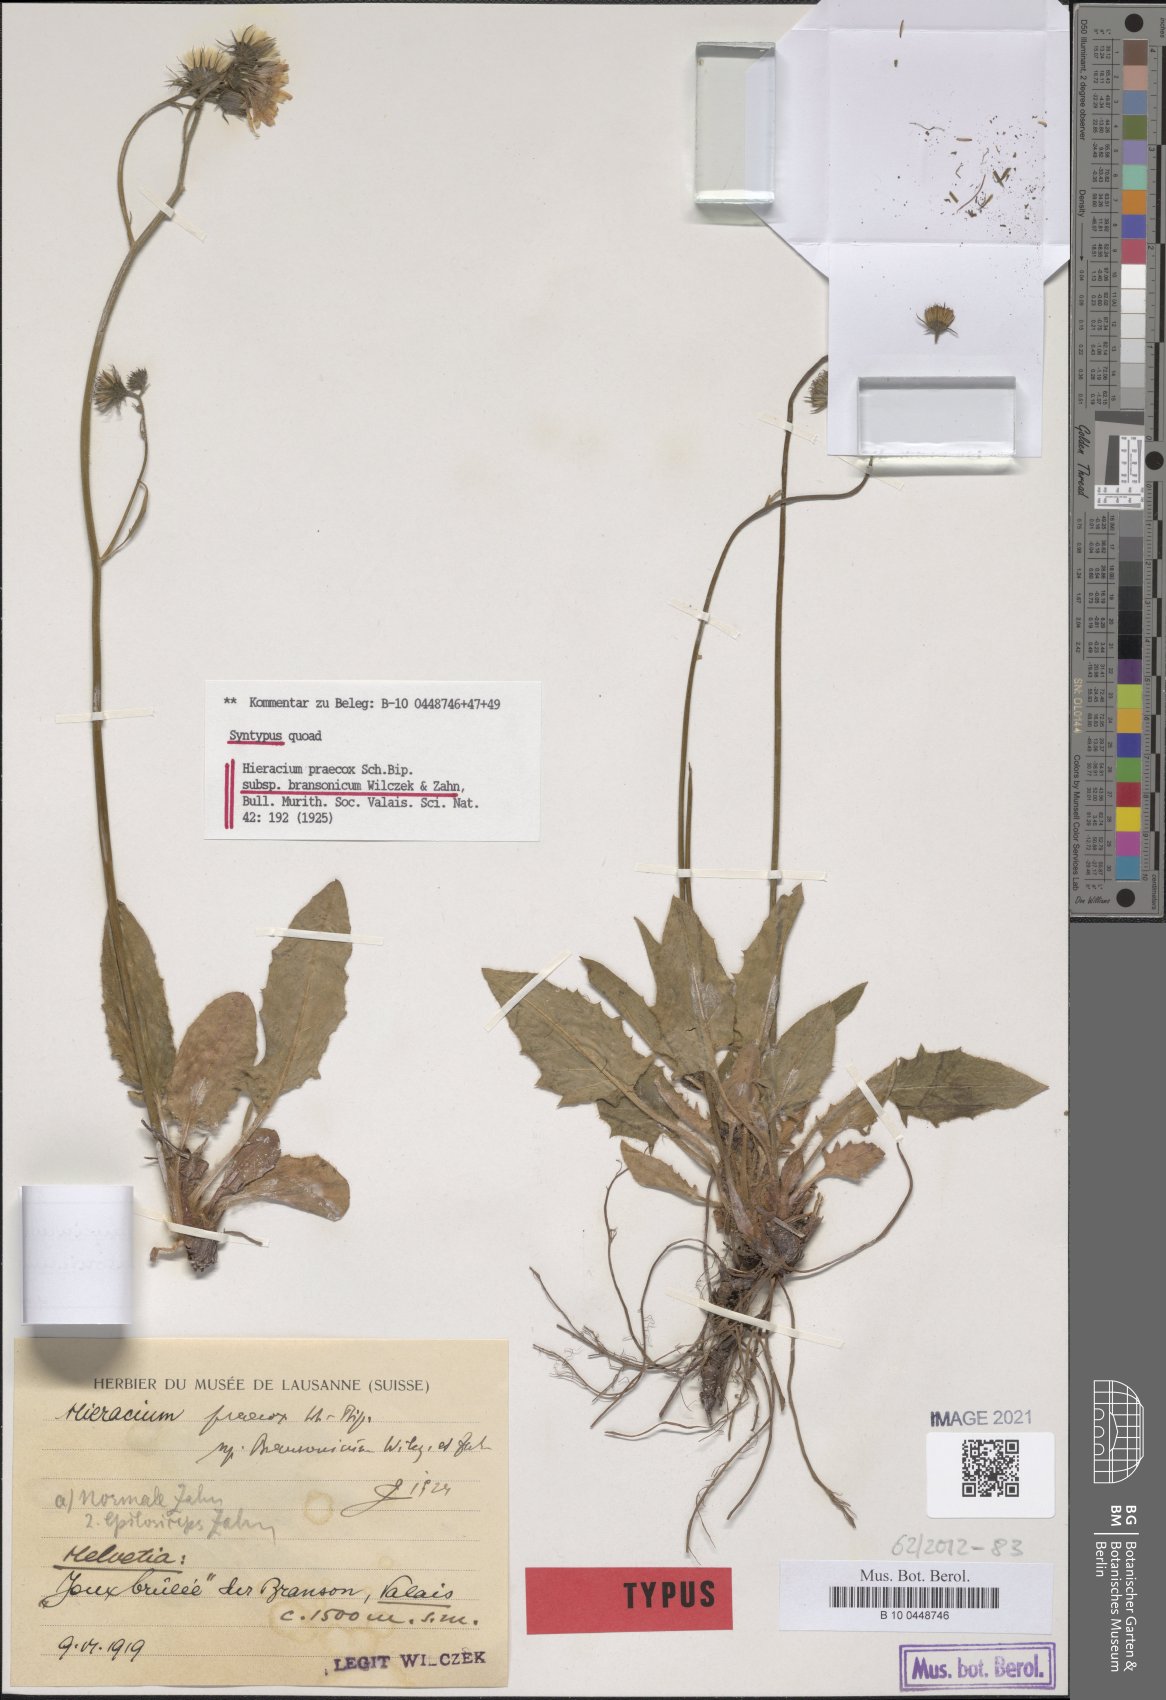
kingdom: Plantae
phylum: Tracheophyta
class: Magnoliopsida
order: Asterales
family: Asteraceae
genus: Hieracium
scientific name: Hieracium praecox
